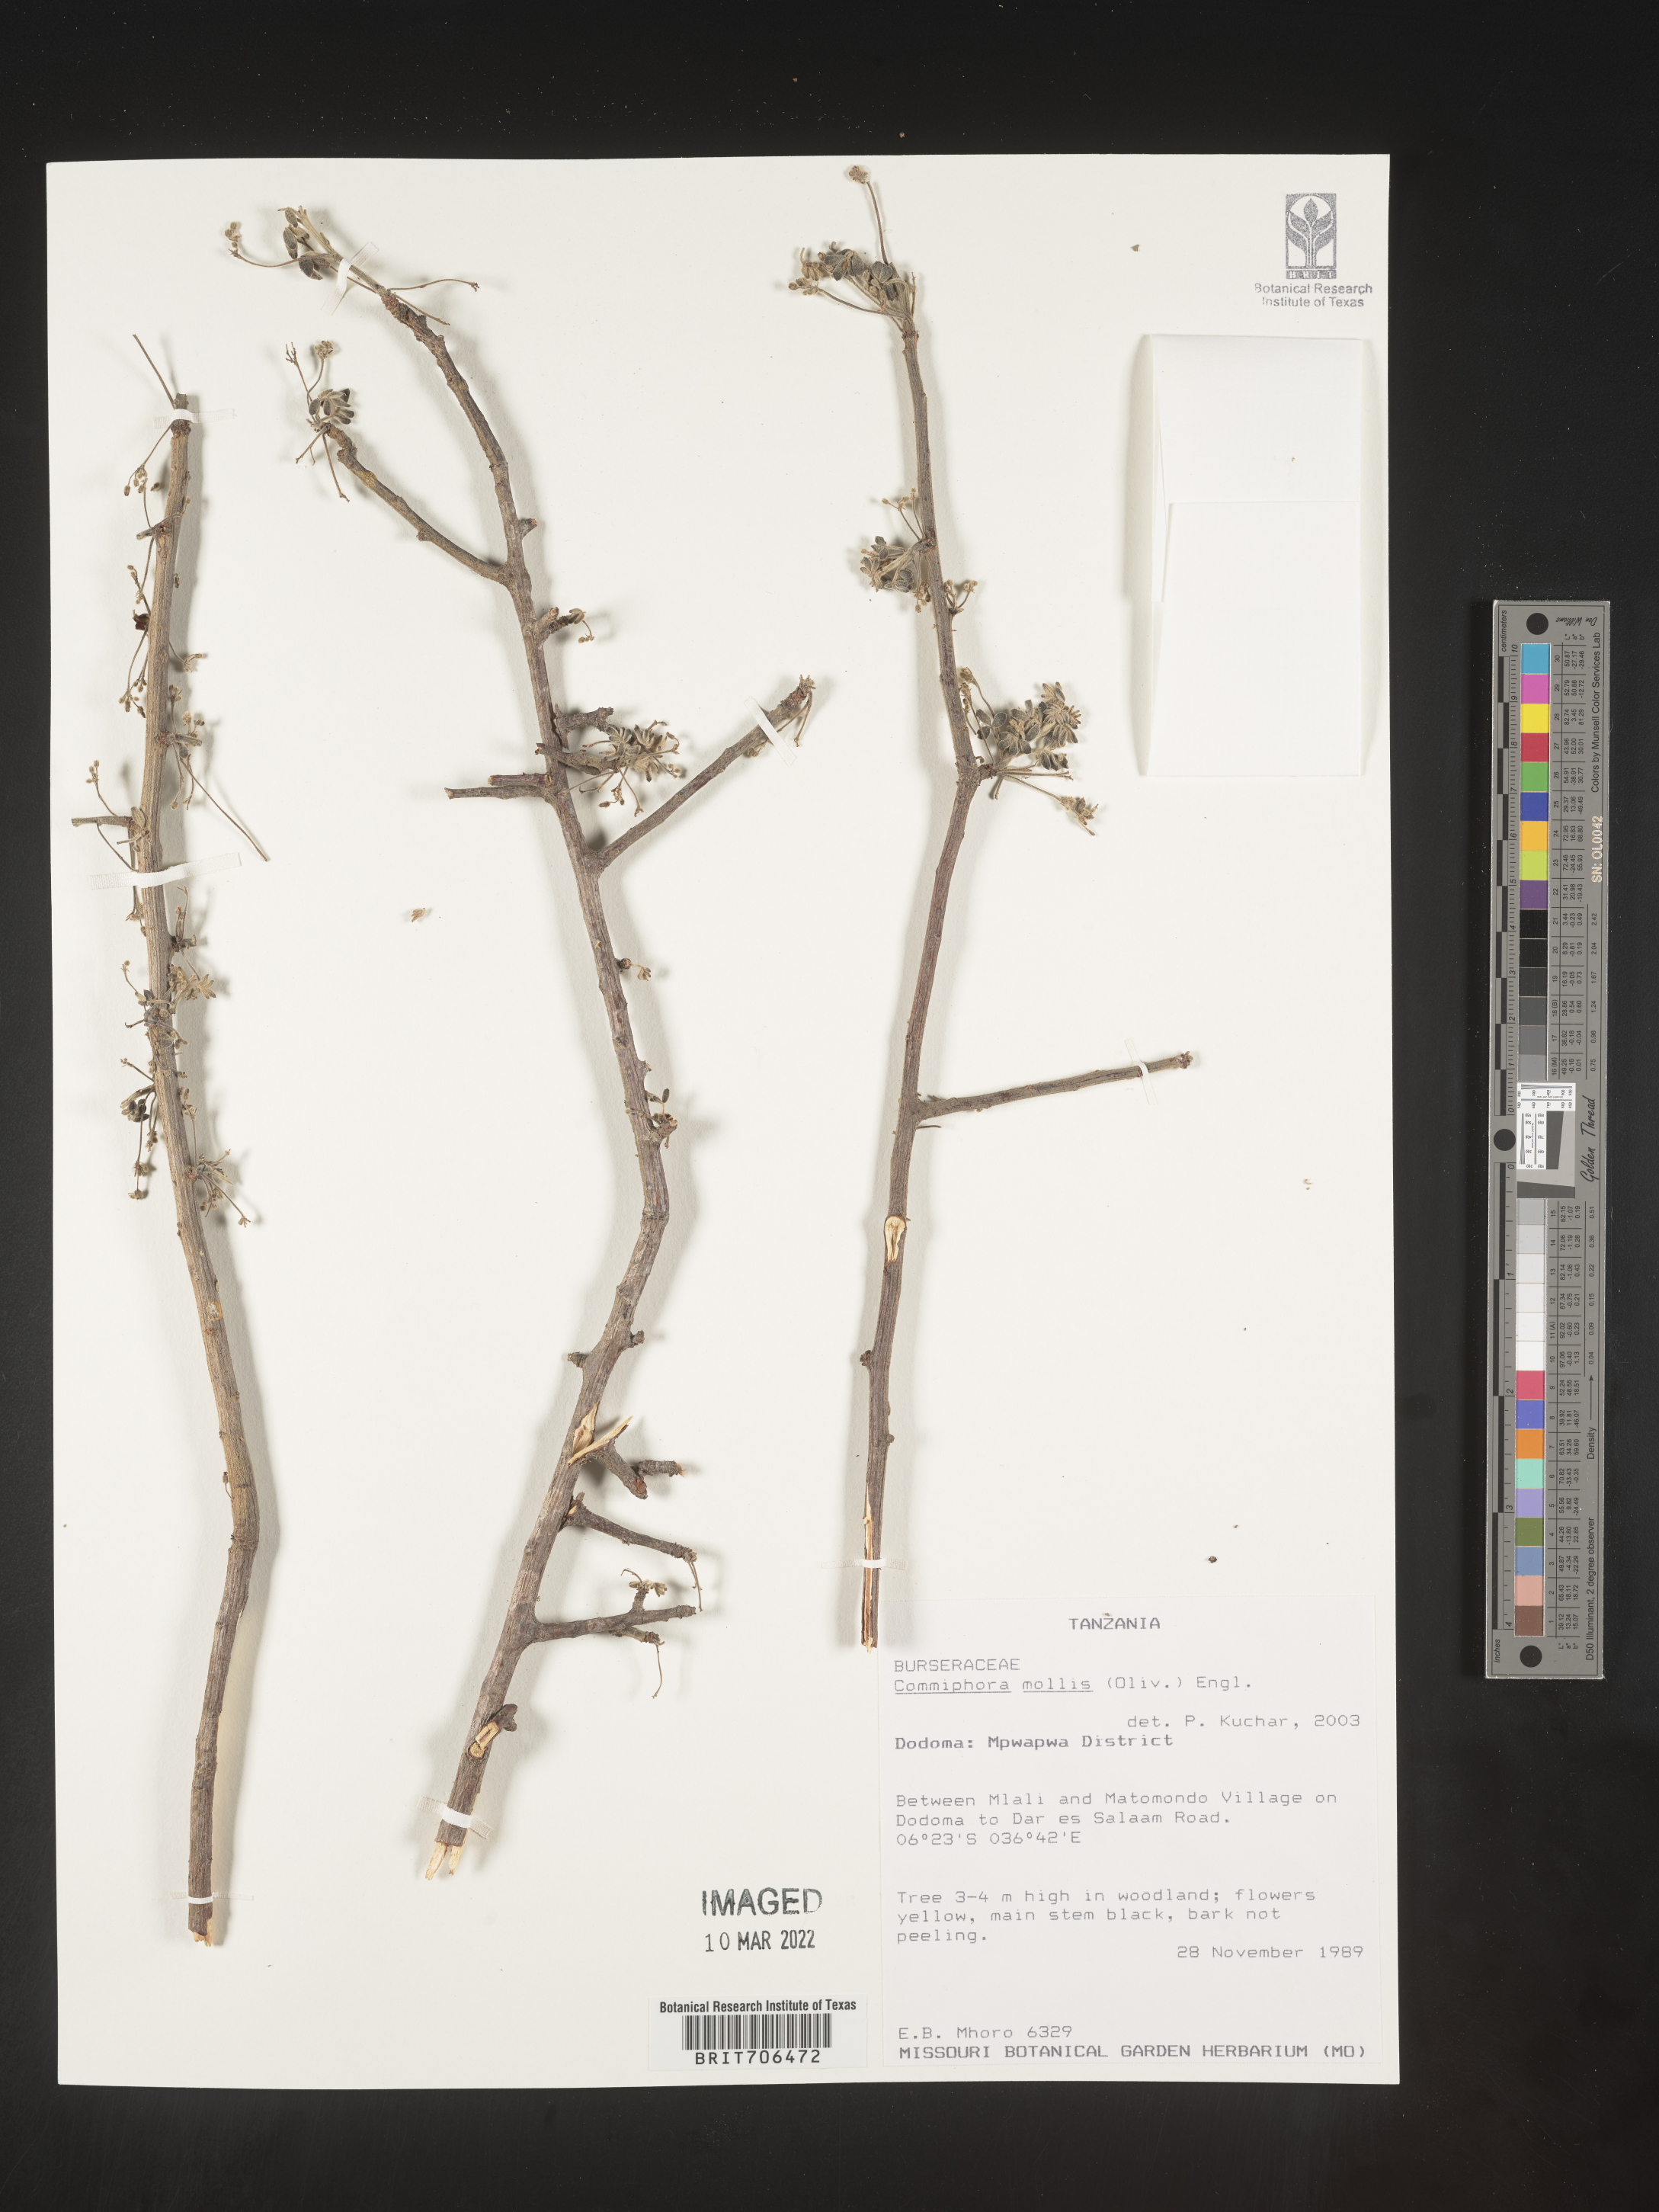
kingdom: Plantae
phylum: Tracheophyta
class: Magnoliopsida
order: Sapindales
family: Burseraceae
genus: Commiphora
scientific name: Commiphora
